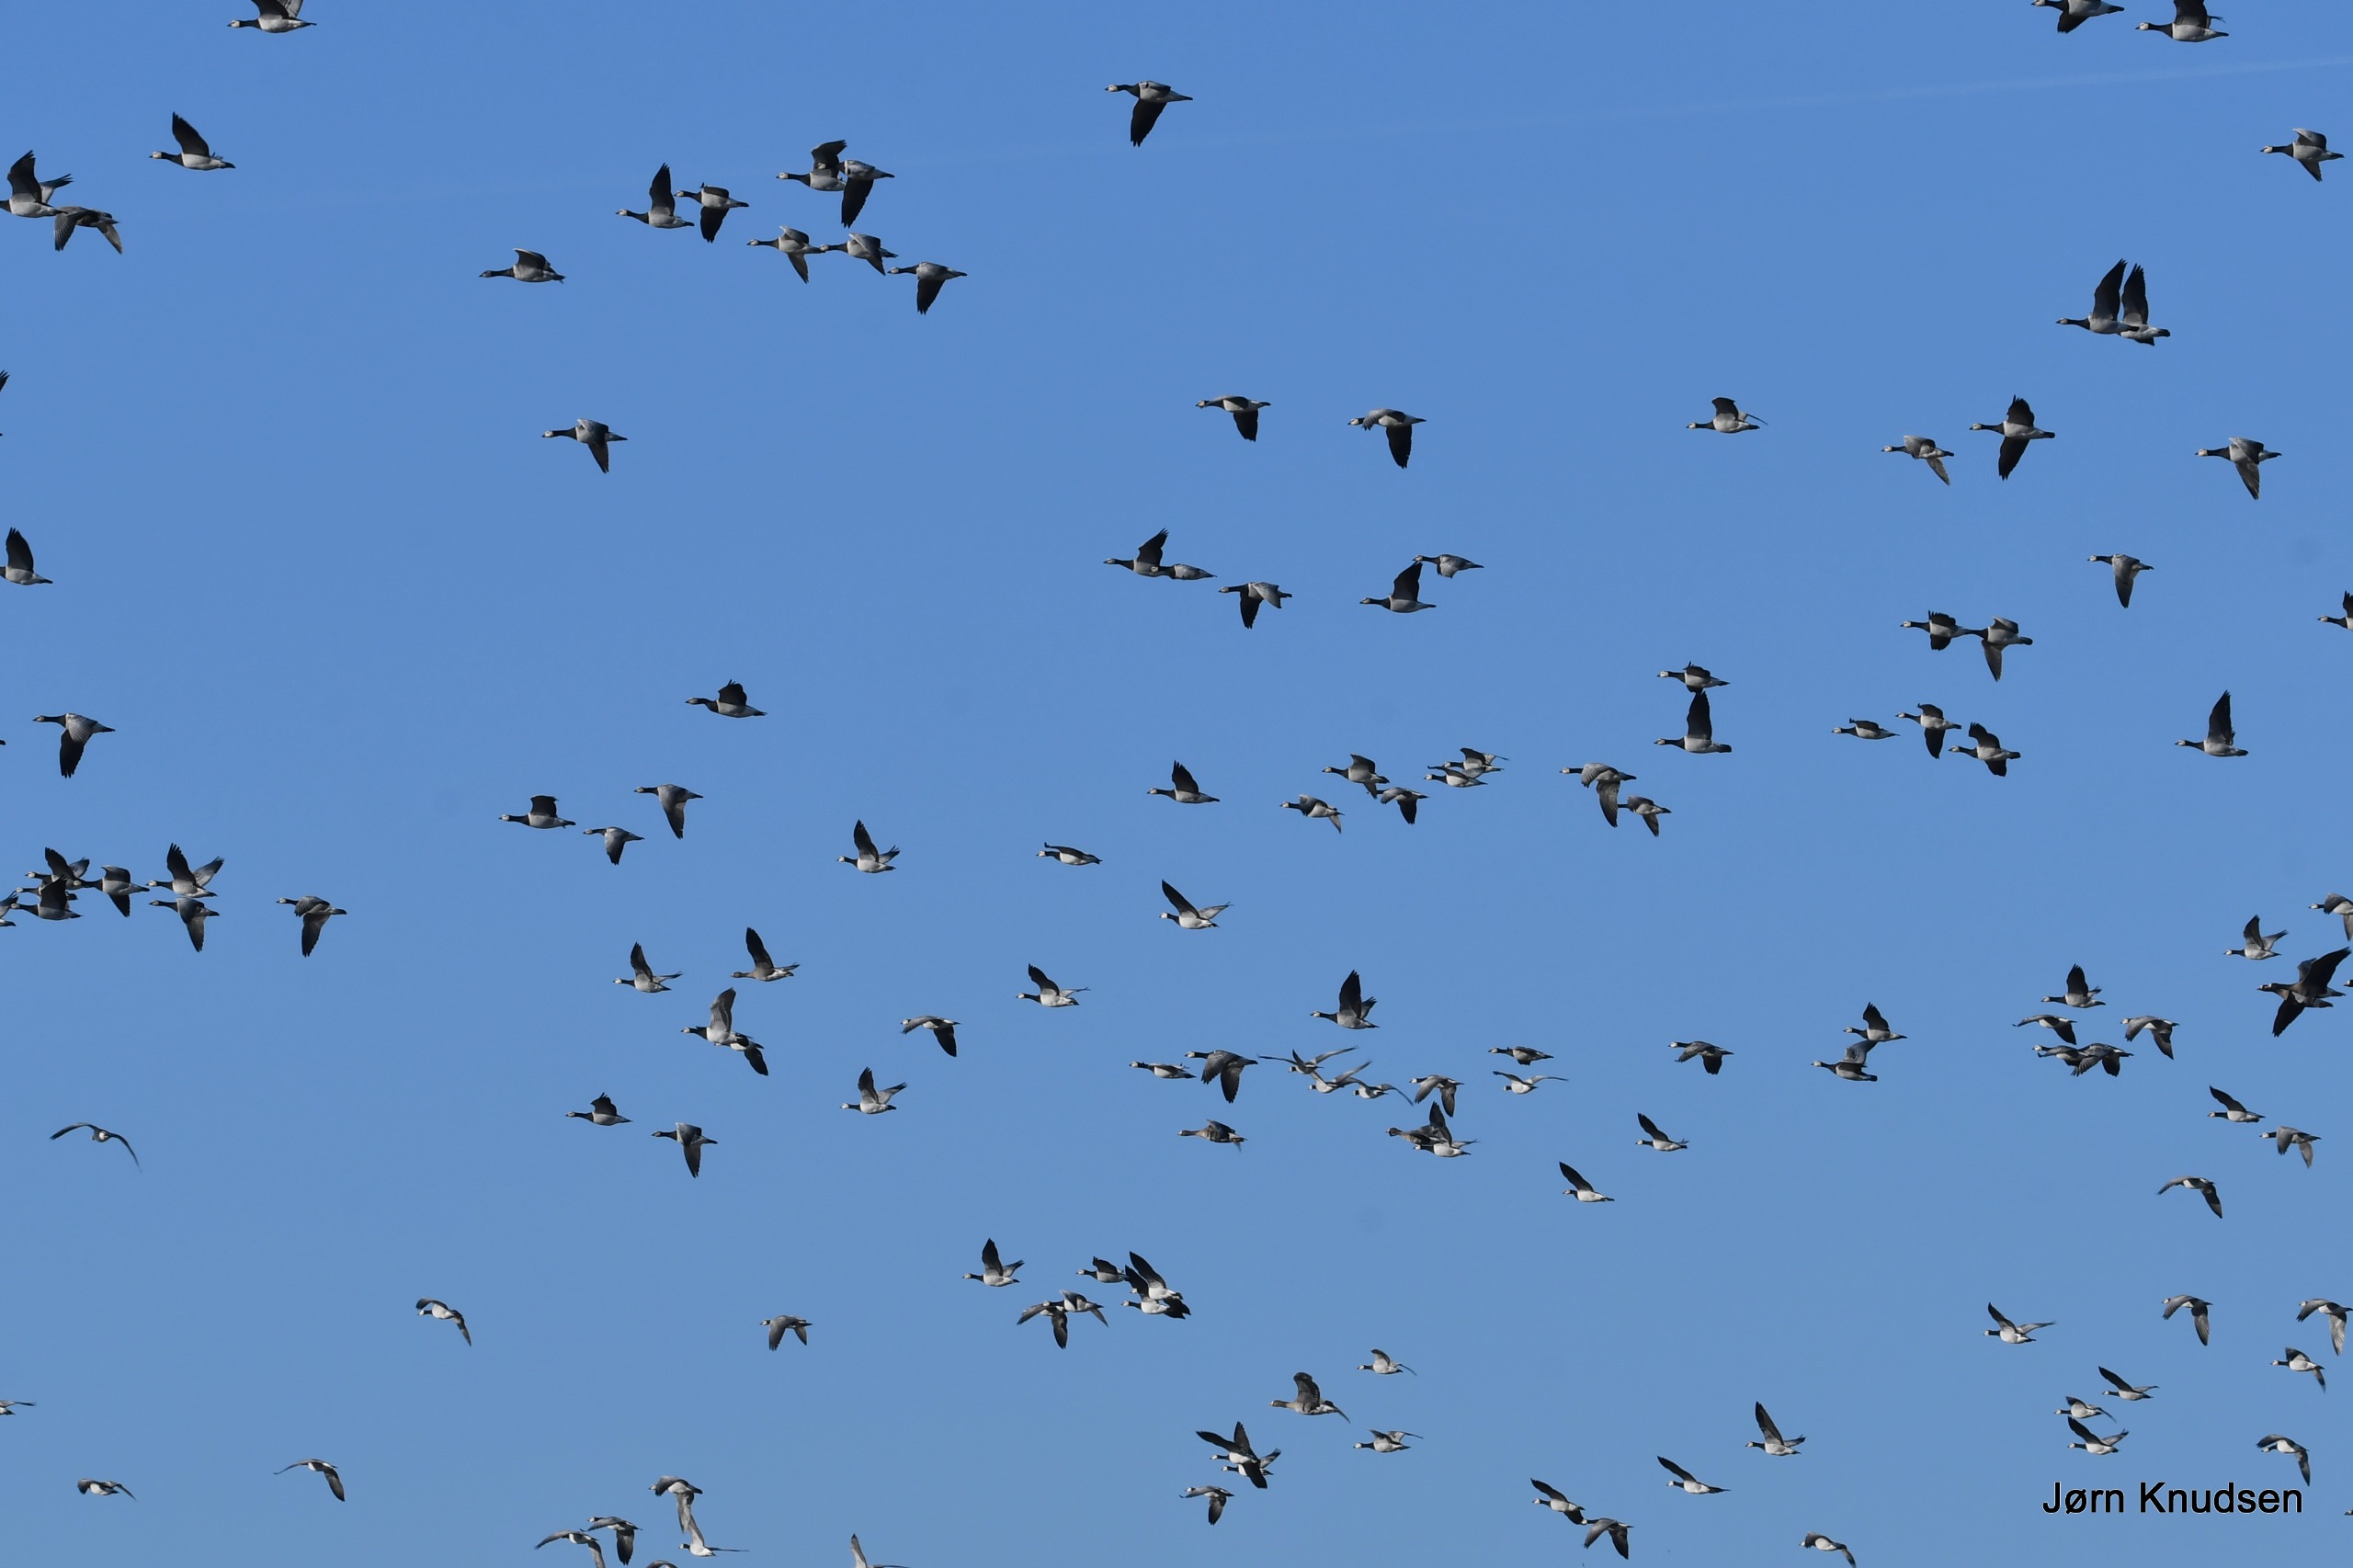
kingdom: Animalia
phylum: Chordata
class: Aves
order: Anseriformes
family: Anatidae
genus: Branta
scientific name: Branta leucopsis
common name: Bramgås
